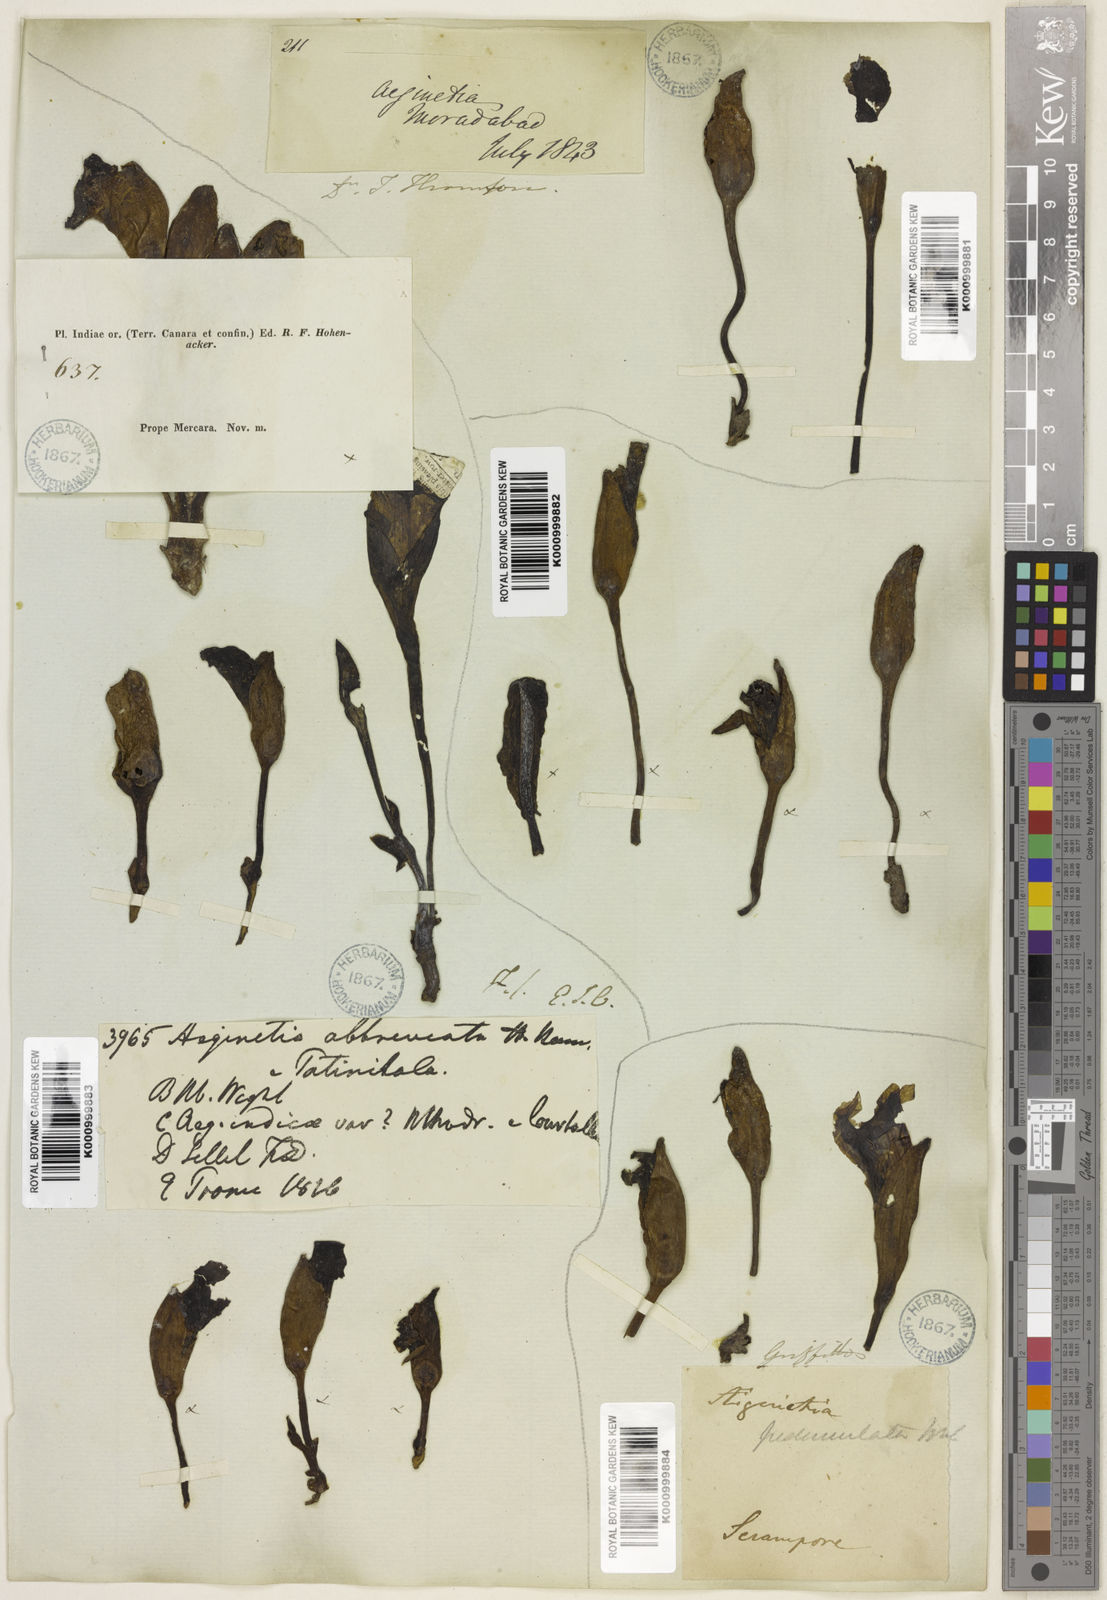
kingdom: Plantae
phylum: Tracheophyta
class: Magnoliopsida
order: Lamiales
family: Orobanchaceae
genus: Aeginetia
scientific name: Aeginetia pedunculata
